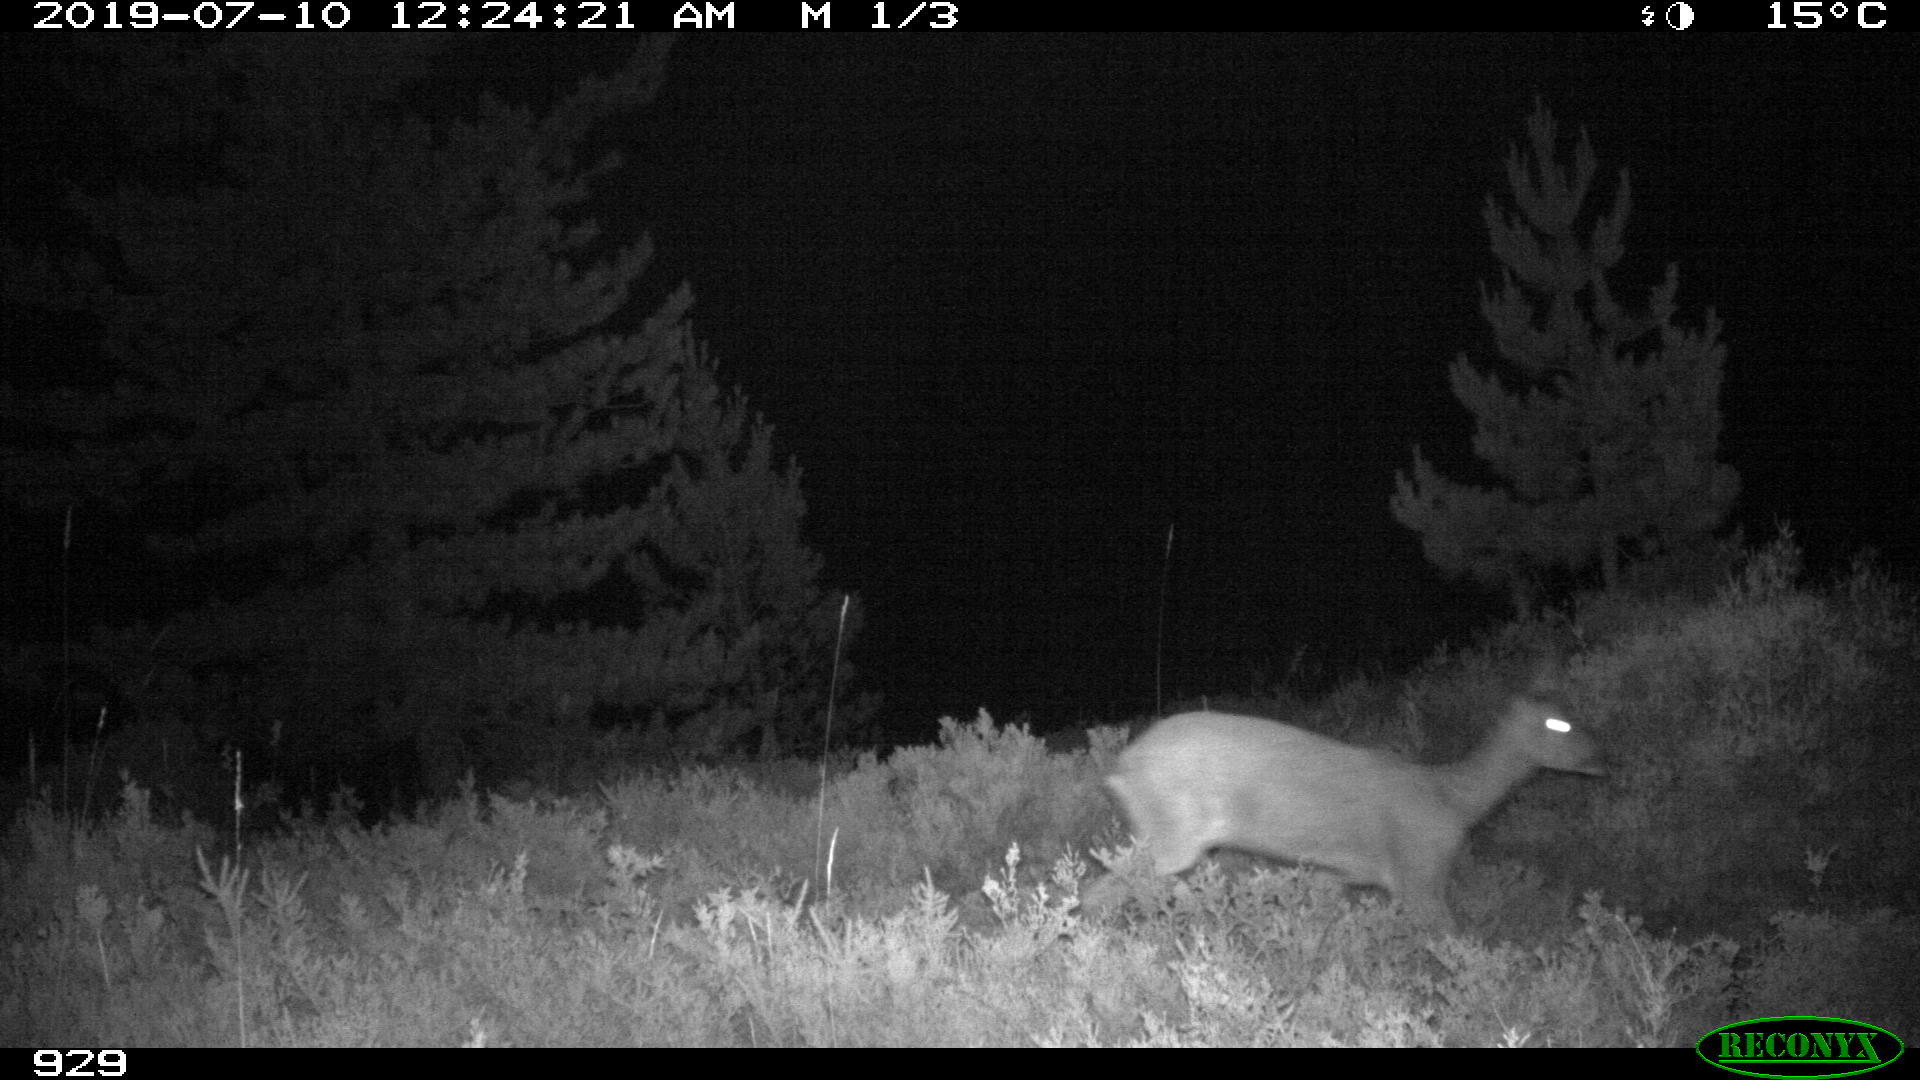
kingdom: Animalia
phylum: Chordata
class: Mammalia
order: Artiodactyla
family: Cervidae
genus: Capreolus
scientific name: Capreolus capreolus
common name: Western roe deer
